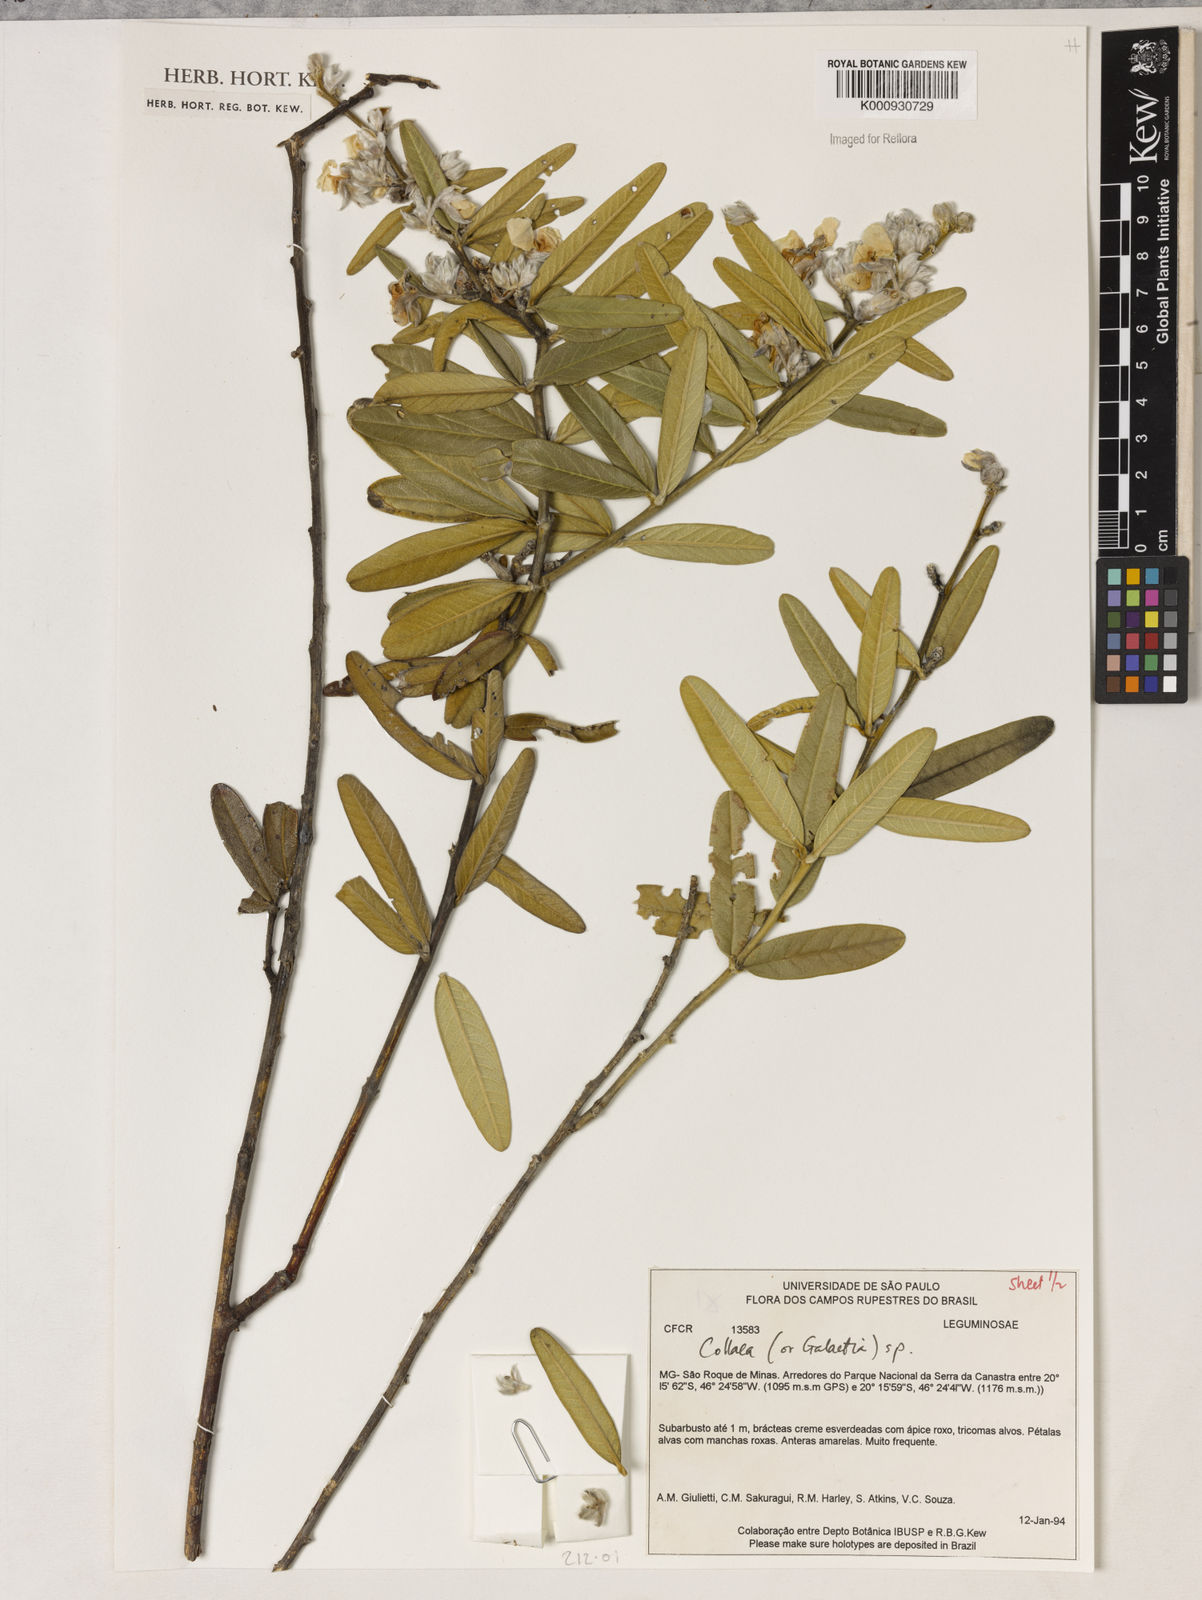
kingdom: Plantae
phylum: Tracheophyta
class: Liliopsida
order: Asparagales
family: Orchidaceae
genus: Pelexia
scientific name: Pelexia
